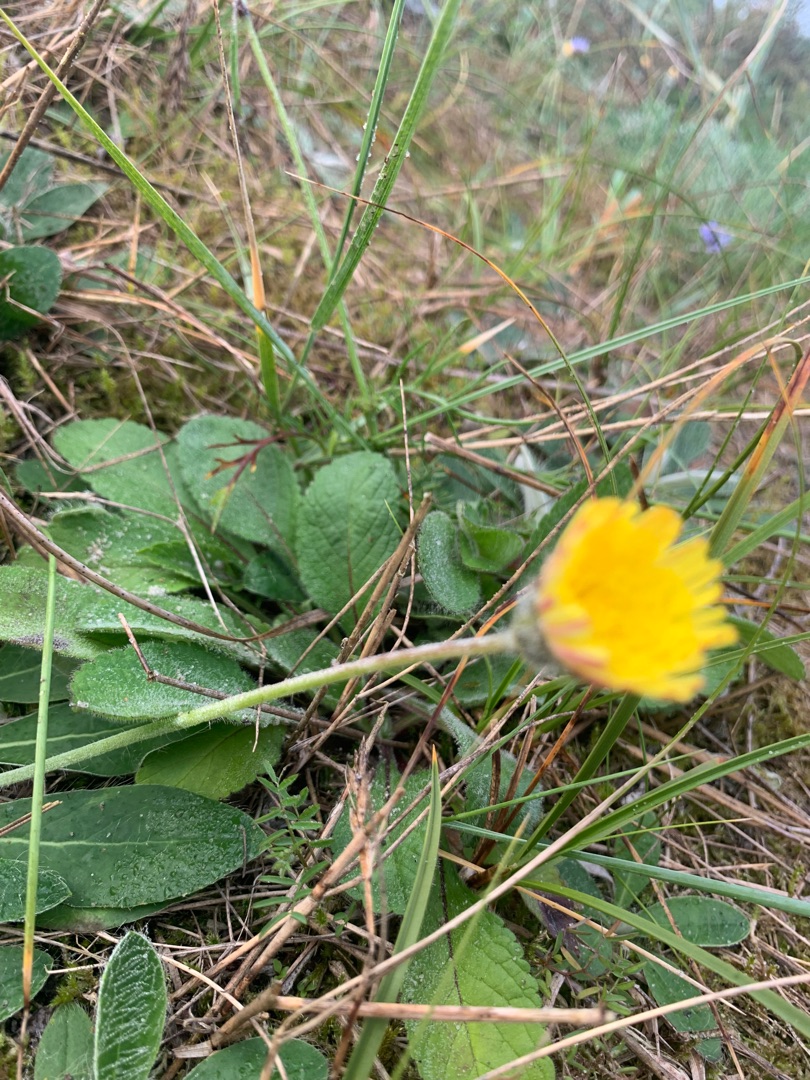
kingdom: Plantae
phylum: Tracheophyta
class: Magnoliopsida
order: Asterales
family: Asteraceae
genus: Pilosella
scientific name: Pilosella officinarum
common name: Håret høgeurt
